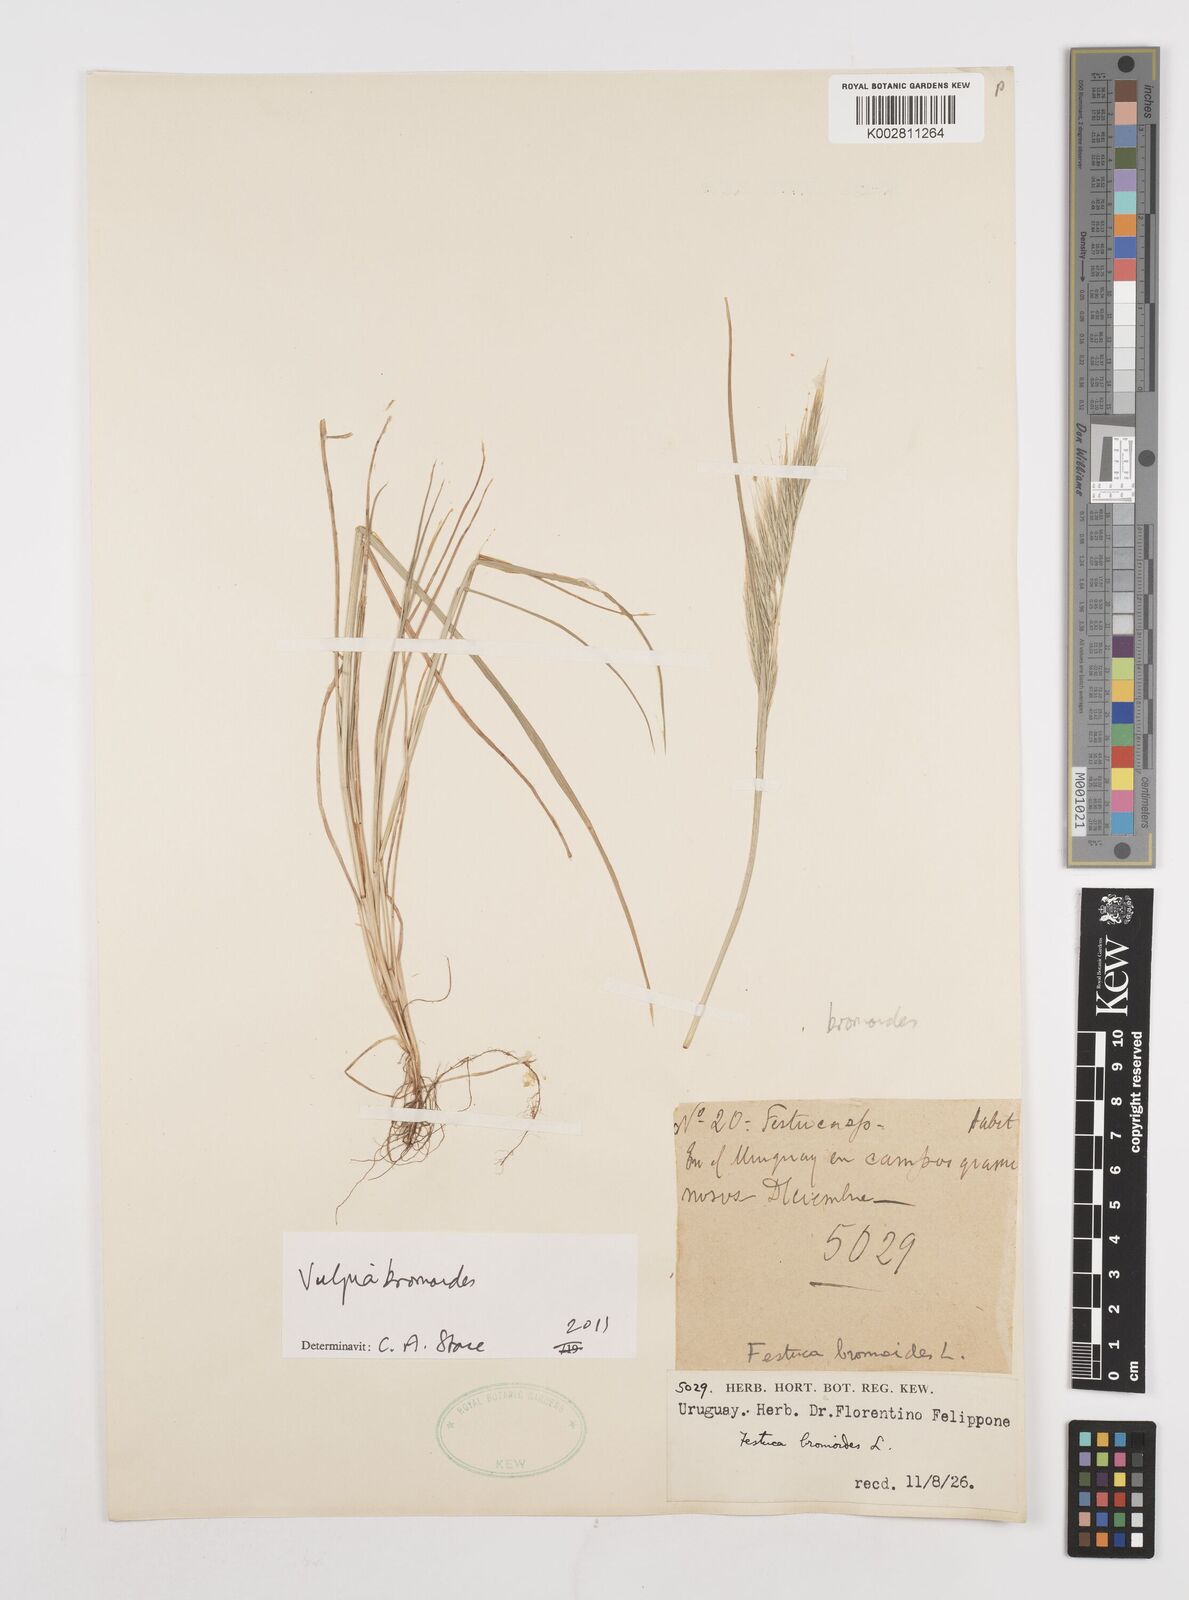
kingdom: Plantae
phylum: Tracheophyta
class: Liliopsida
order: Poales
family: Poaceae
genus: Festuca
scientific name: Festuca bromoides
